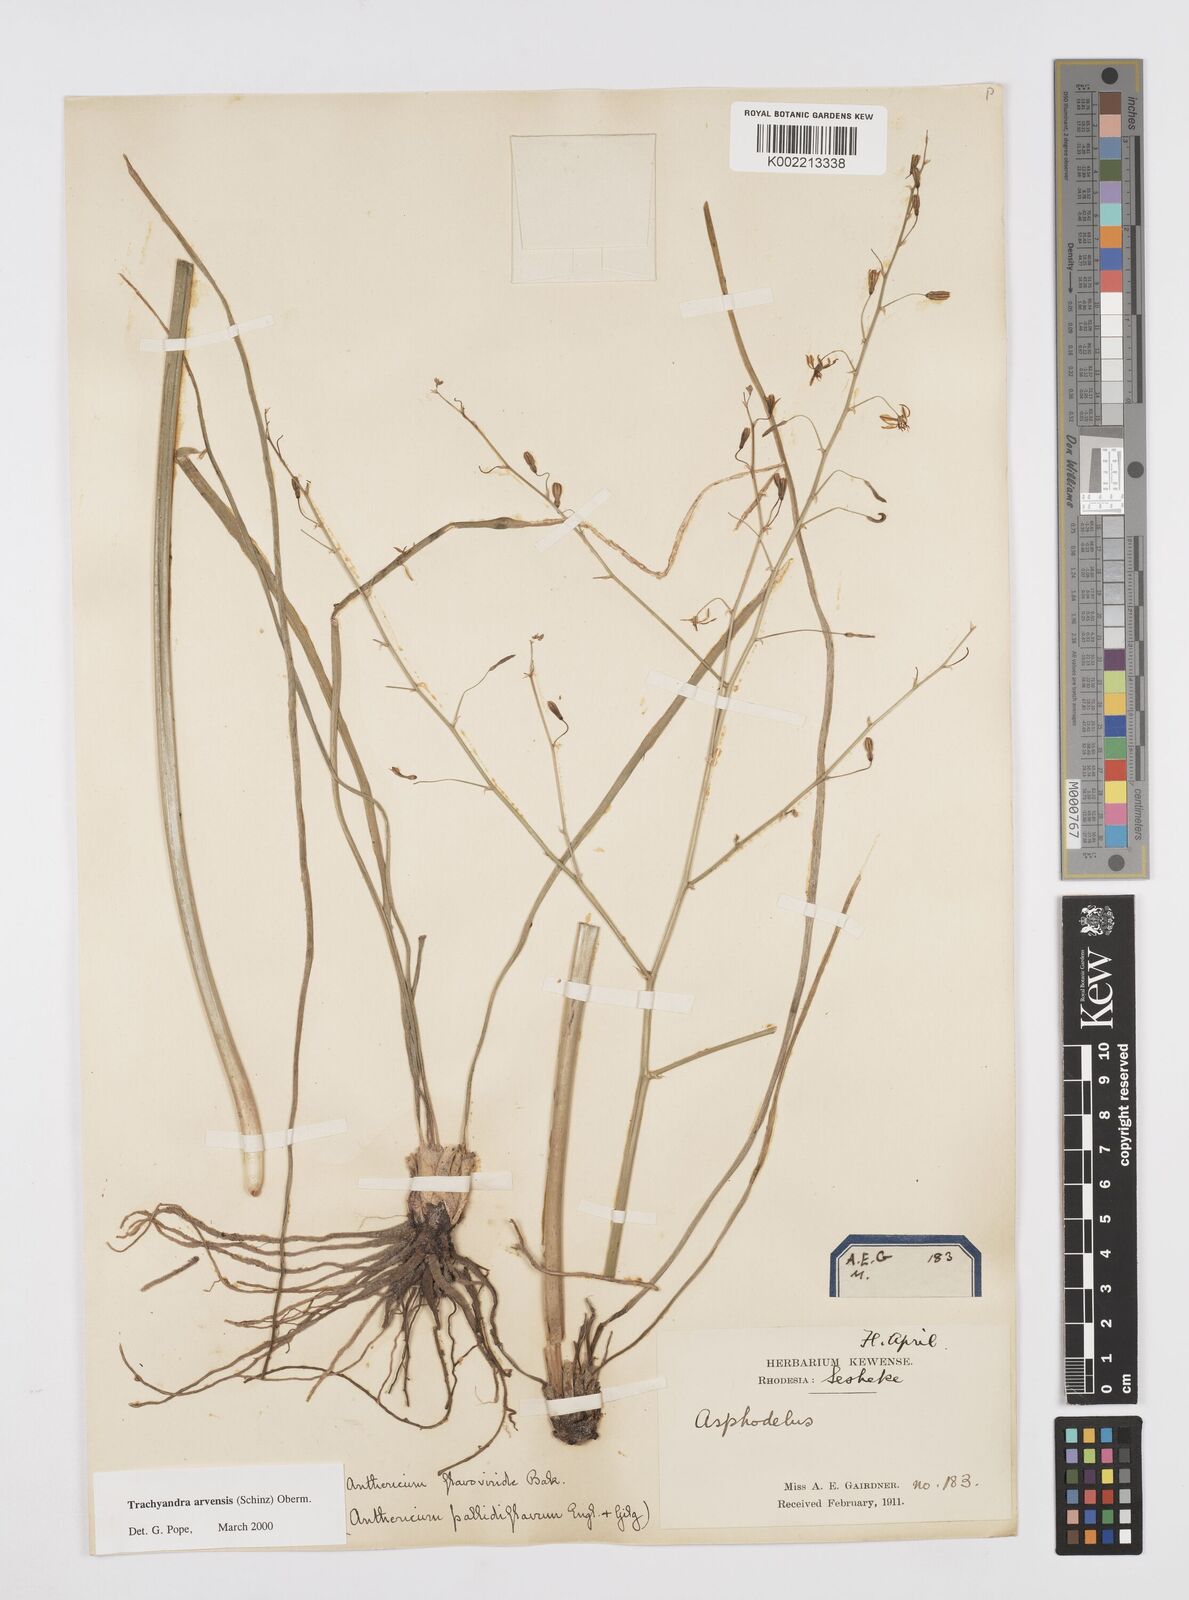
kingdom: Plantae
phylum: Tracheophyta
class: Liliopsida
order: Asparagales
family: Asphodelaceae
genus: Trachyandra
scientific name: Trachyandra arvensis
